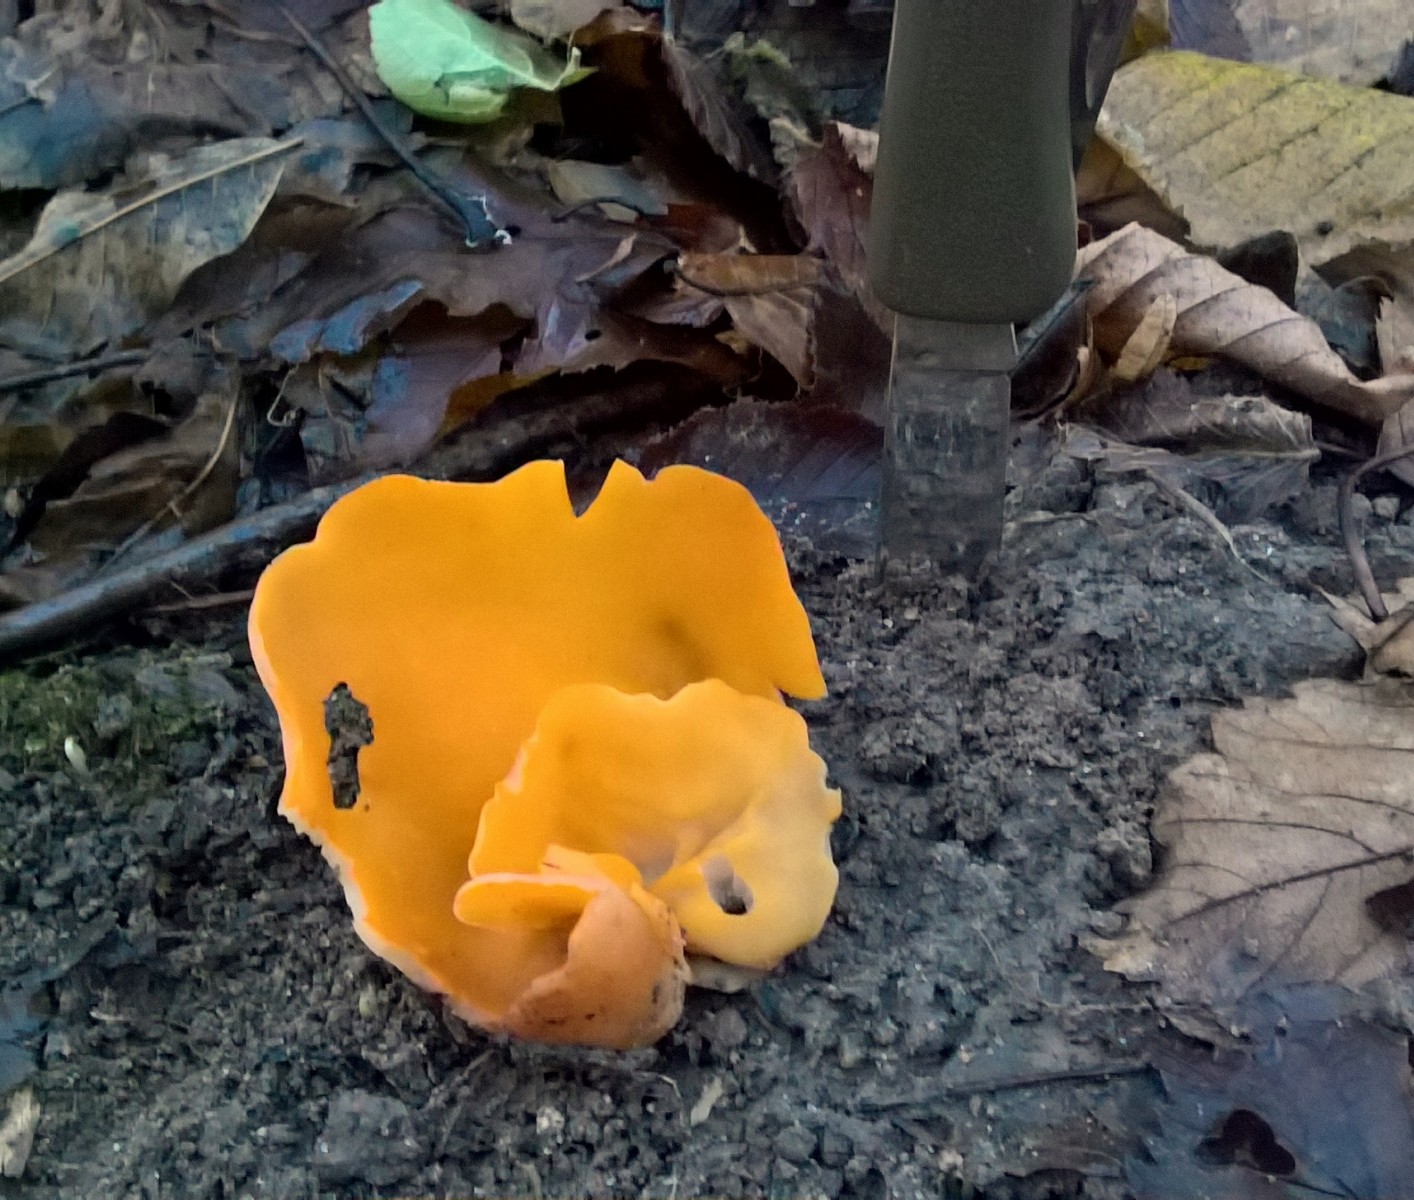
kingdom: Fungi
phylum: Ascomycota
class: Pezizomycetes
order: Pezizales
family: Pyronemataceae
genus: Aleuria
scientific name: Aleuria aurantia
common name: almindelig orangebæger
